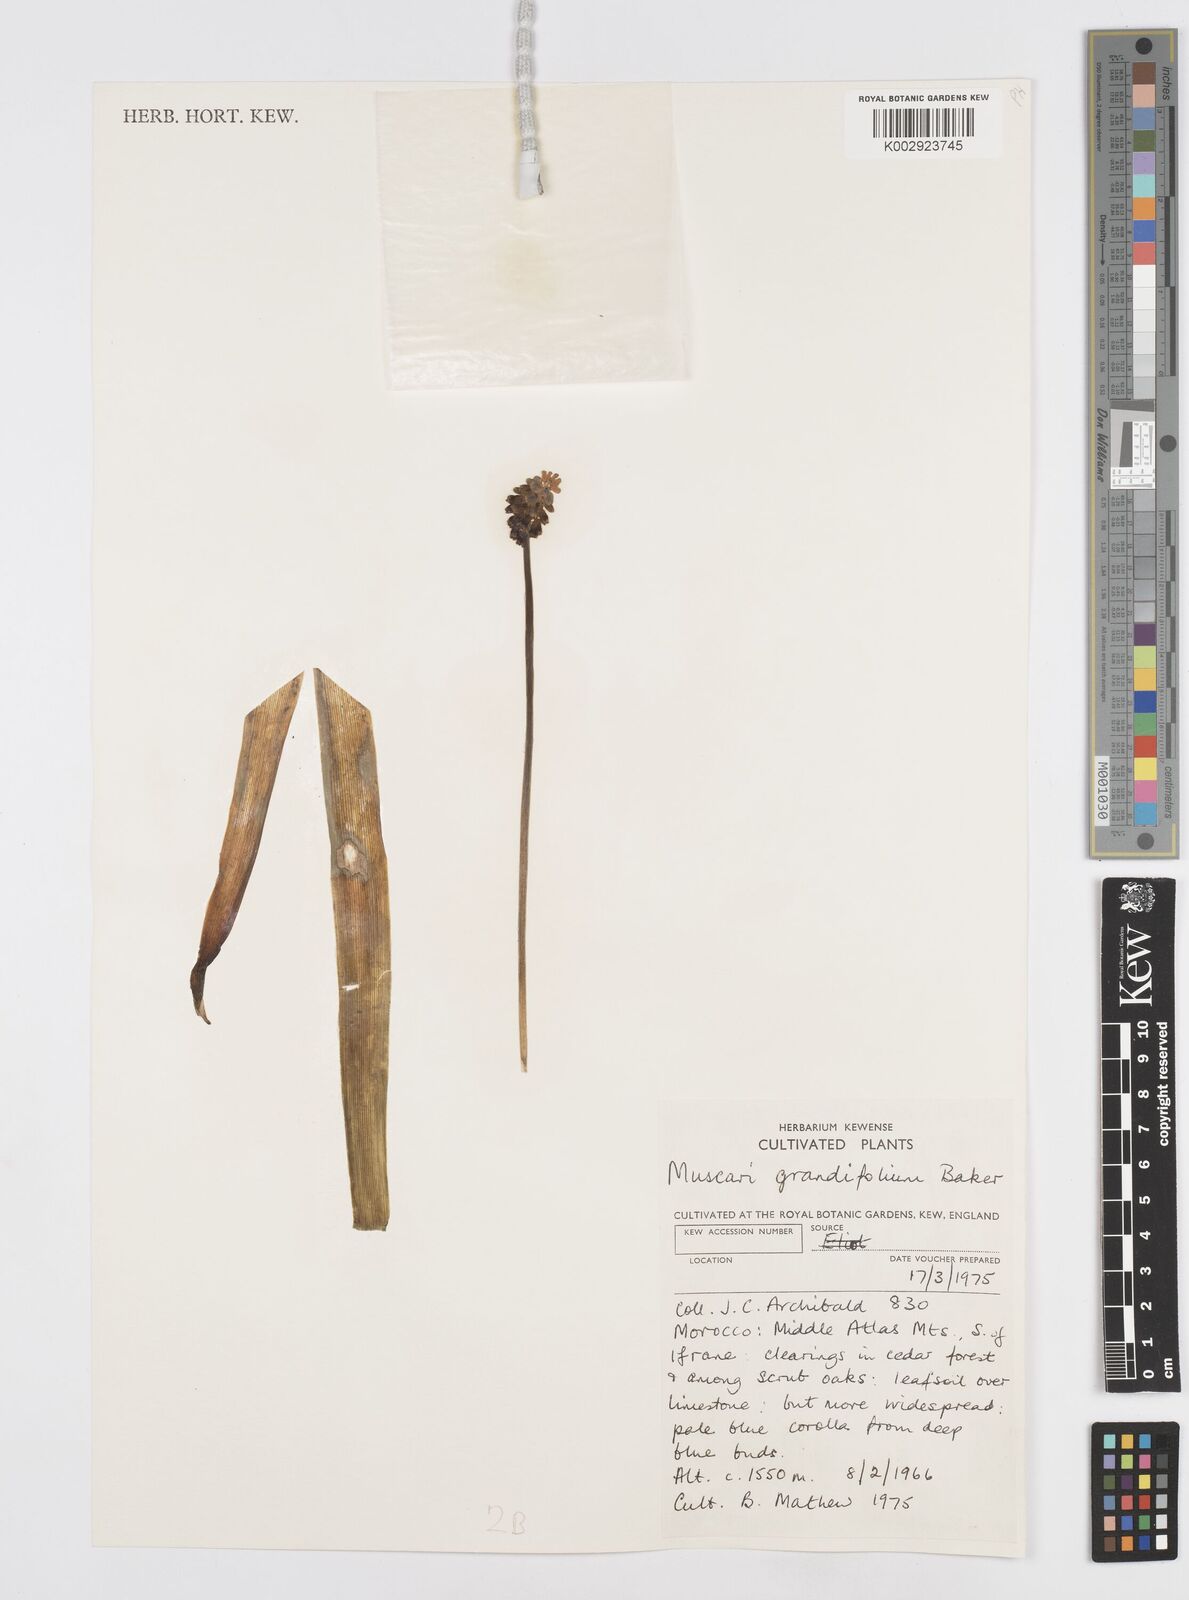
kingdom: Plantae
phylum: Tracheophyta
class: Liliopsida
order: Asparagales
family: Asparagaceae
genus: Muscari
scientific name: Muscari neglectum
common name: Grape-hyacinth
